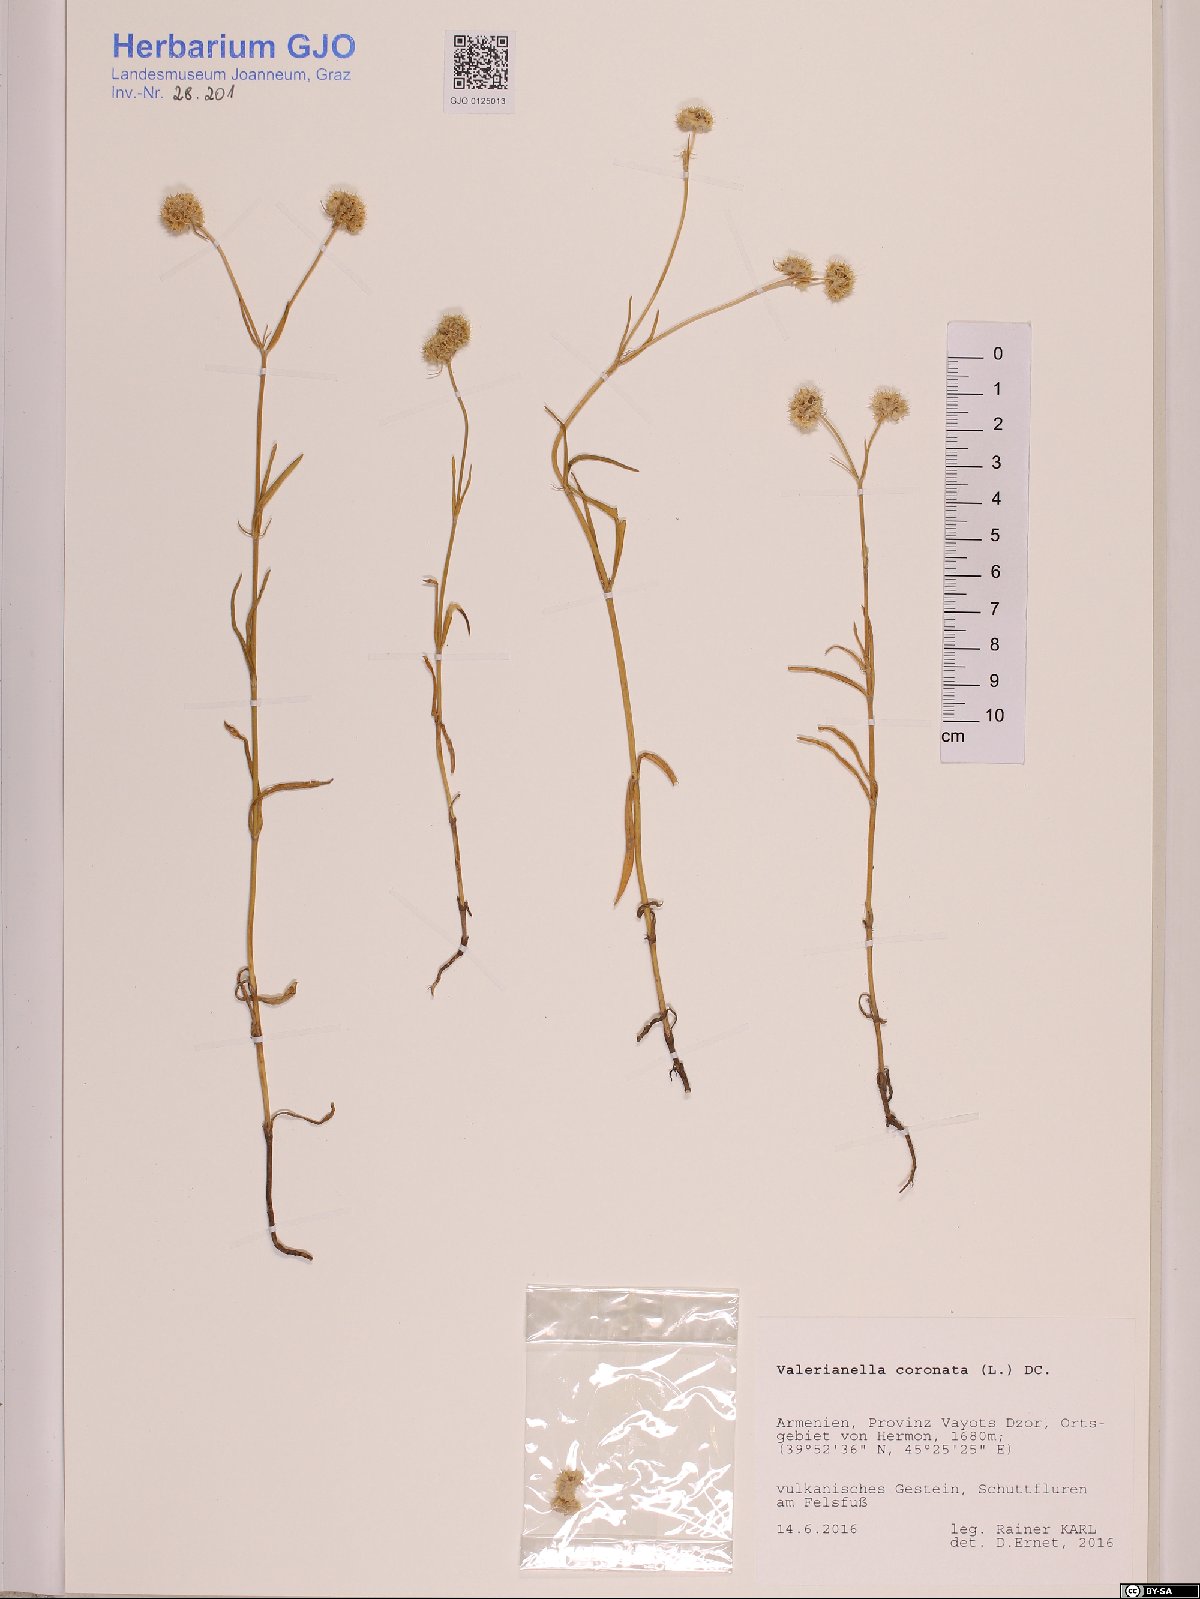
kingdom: Plantae
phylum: Tracheophyta
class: Magnoliopsida
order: Dipsacales
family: Caprifoliaceae
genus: Valerianella
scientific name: Valerianella coronata
